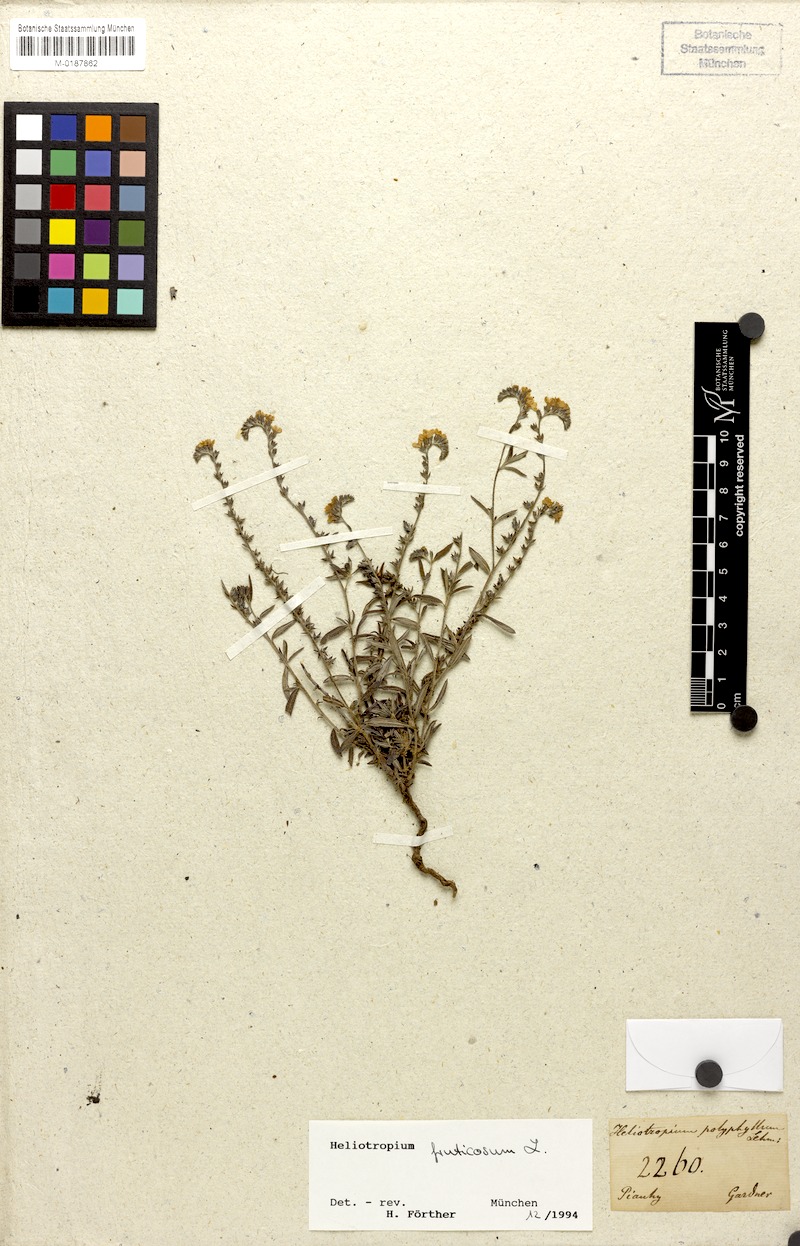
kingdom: Plantae
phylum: Tracheophyta
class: Magnoliopsida
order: Boraginales
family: Heliotropiaceae
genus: Euploca
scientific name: Euploca fruticosa
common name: Key west heliotrope
